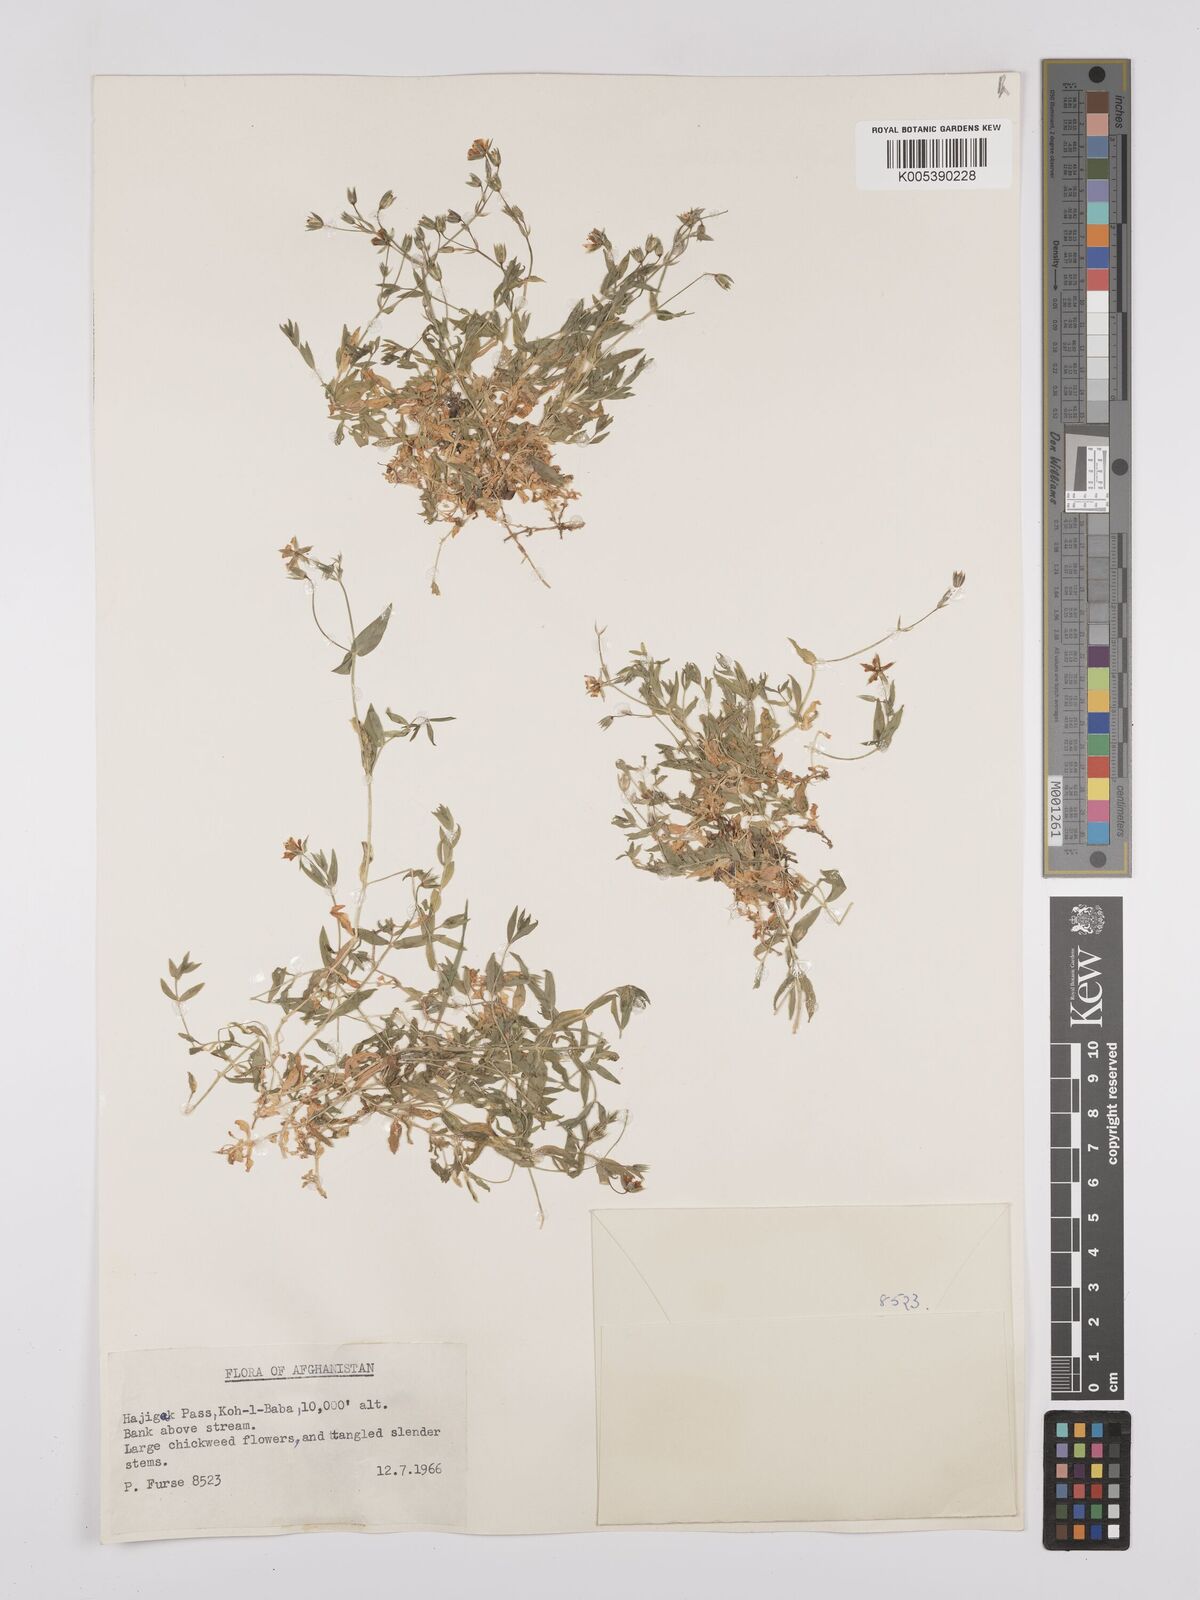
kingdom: Plantae
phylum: Tracheophyta
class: Magnoliopsida
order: Caryophyllales
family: Caryophyllaceae
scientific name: Caryophyllaceae
